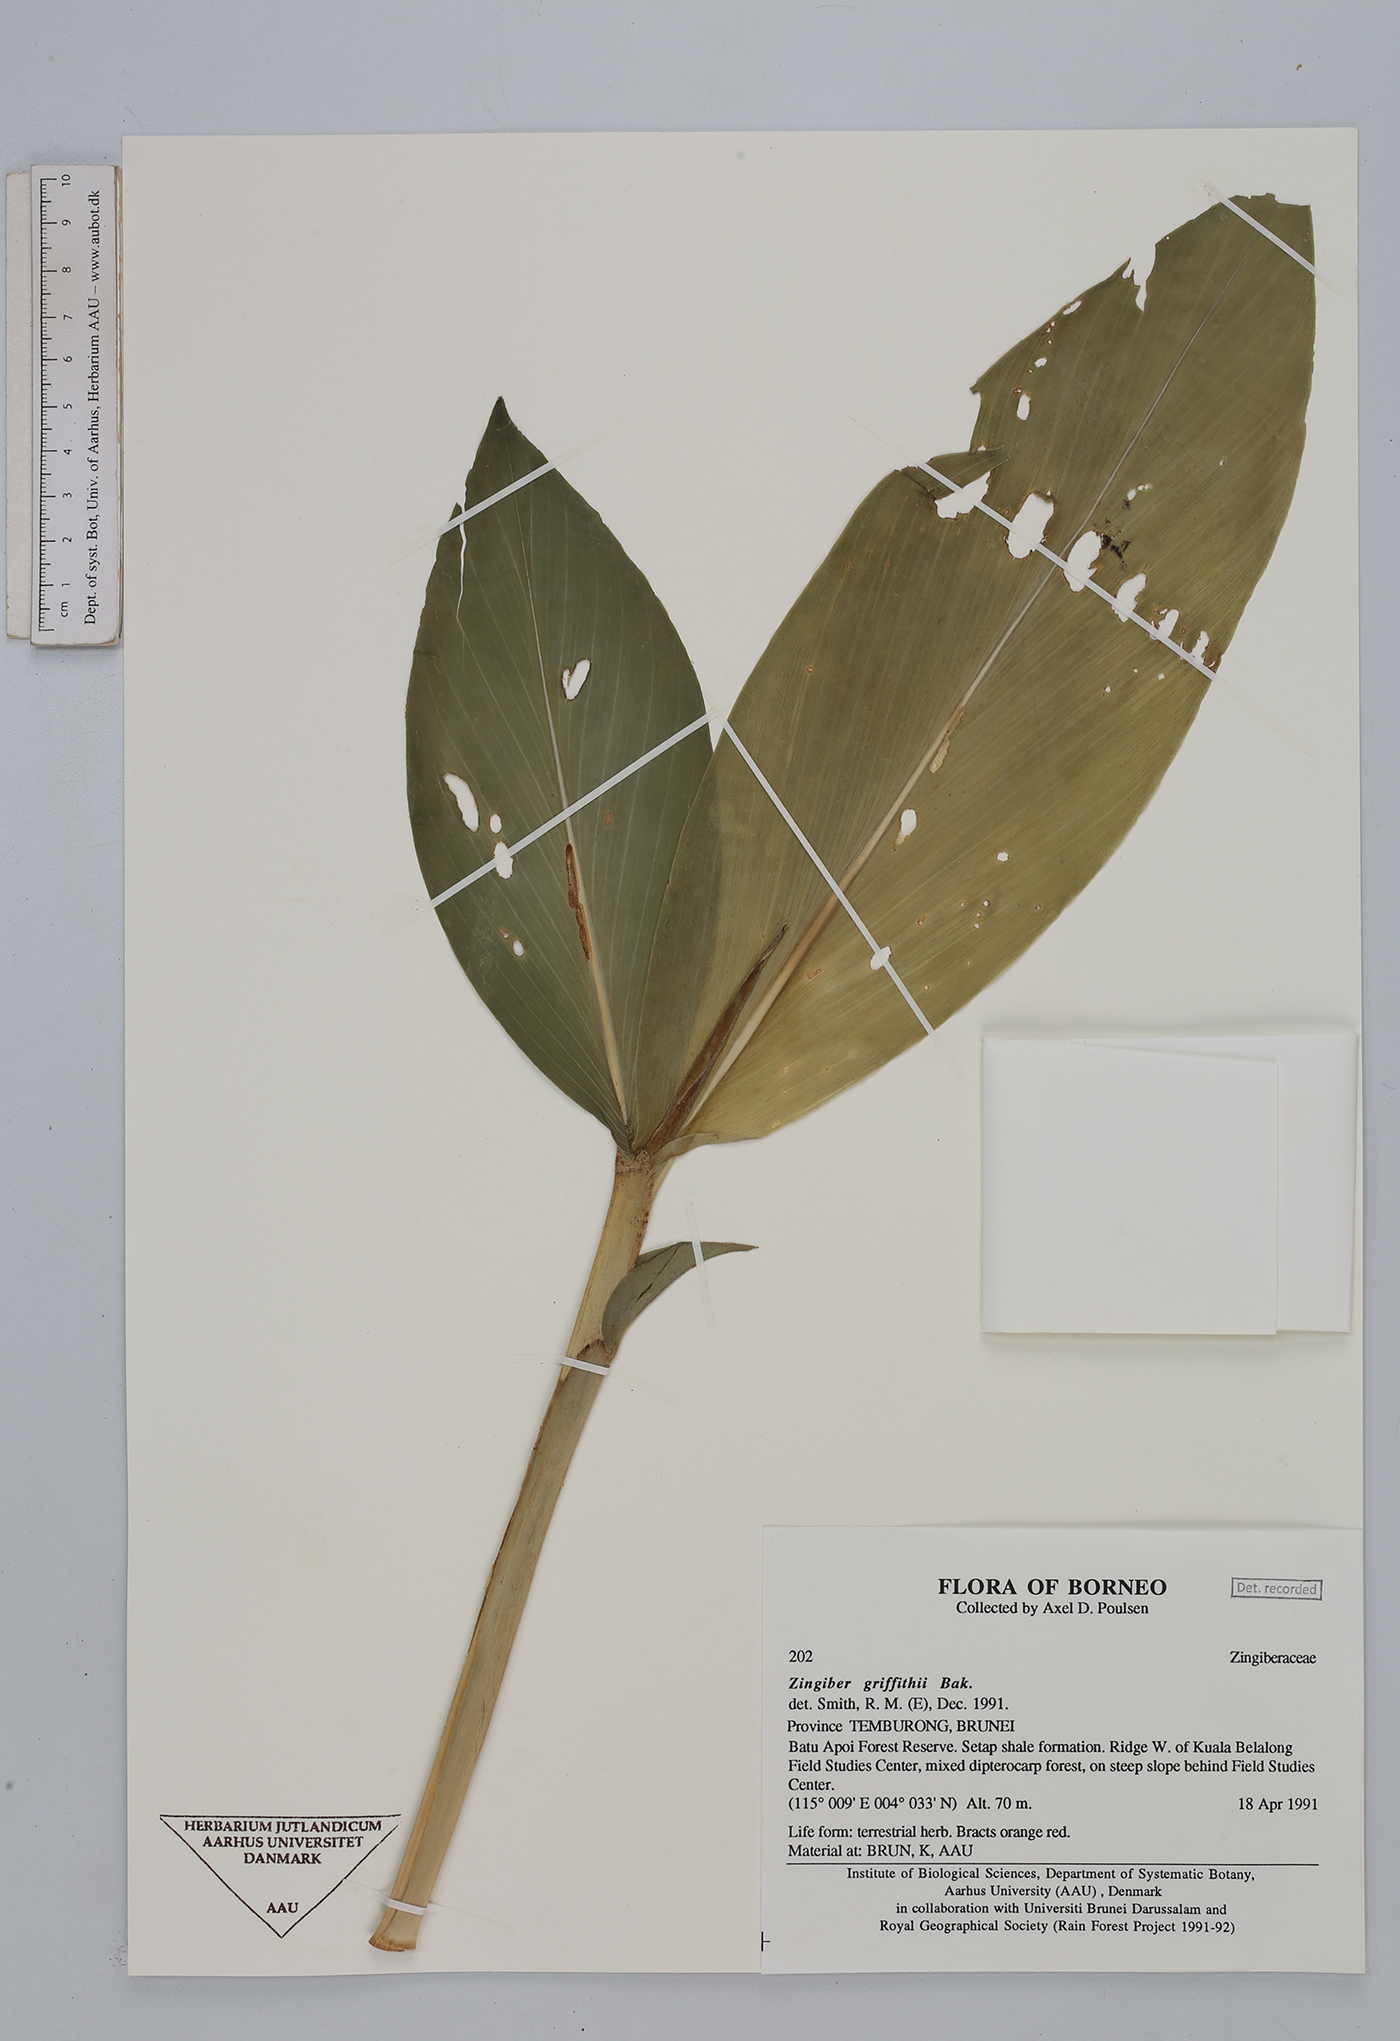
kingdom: Plantae
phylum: Tracheophyta
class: Liliopsida
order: Zingiberales
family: Zingiberaceae
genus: Zingiber
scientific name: Zingiber griffithii
